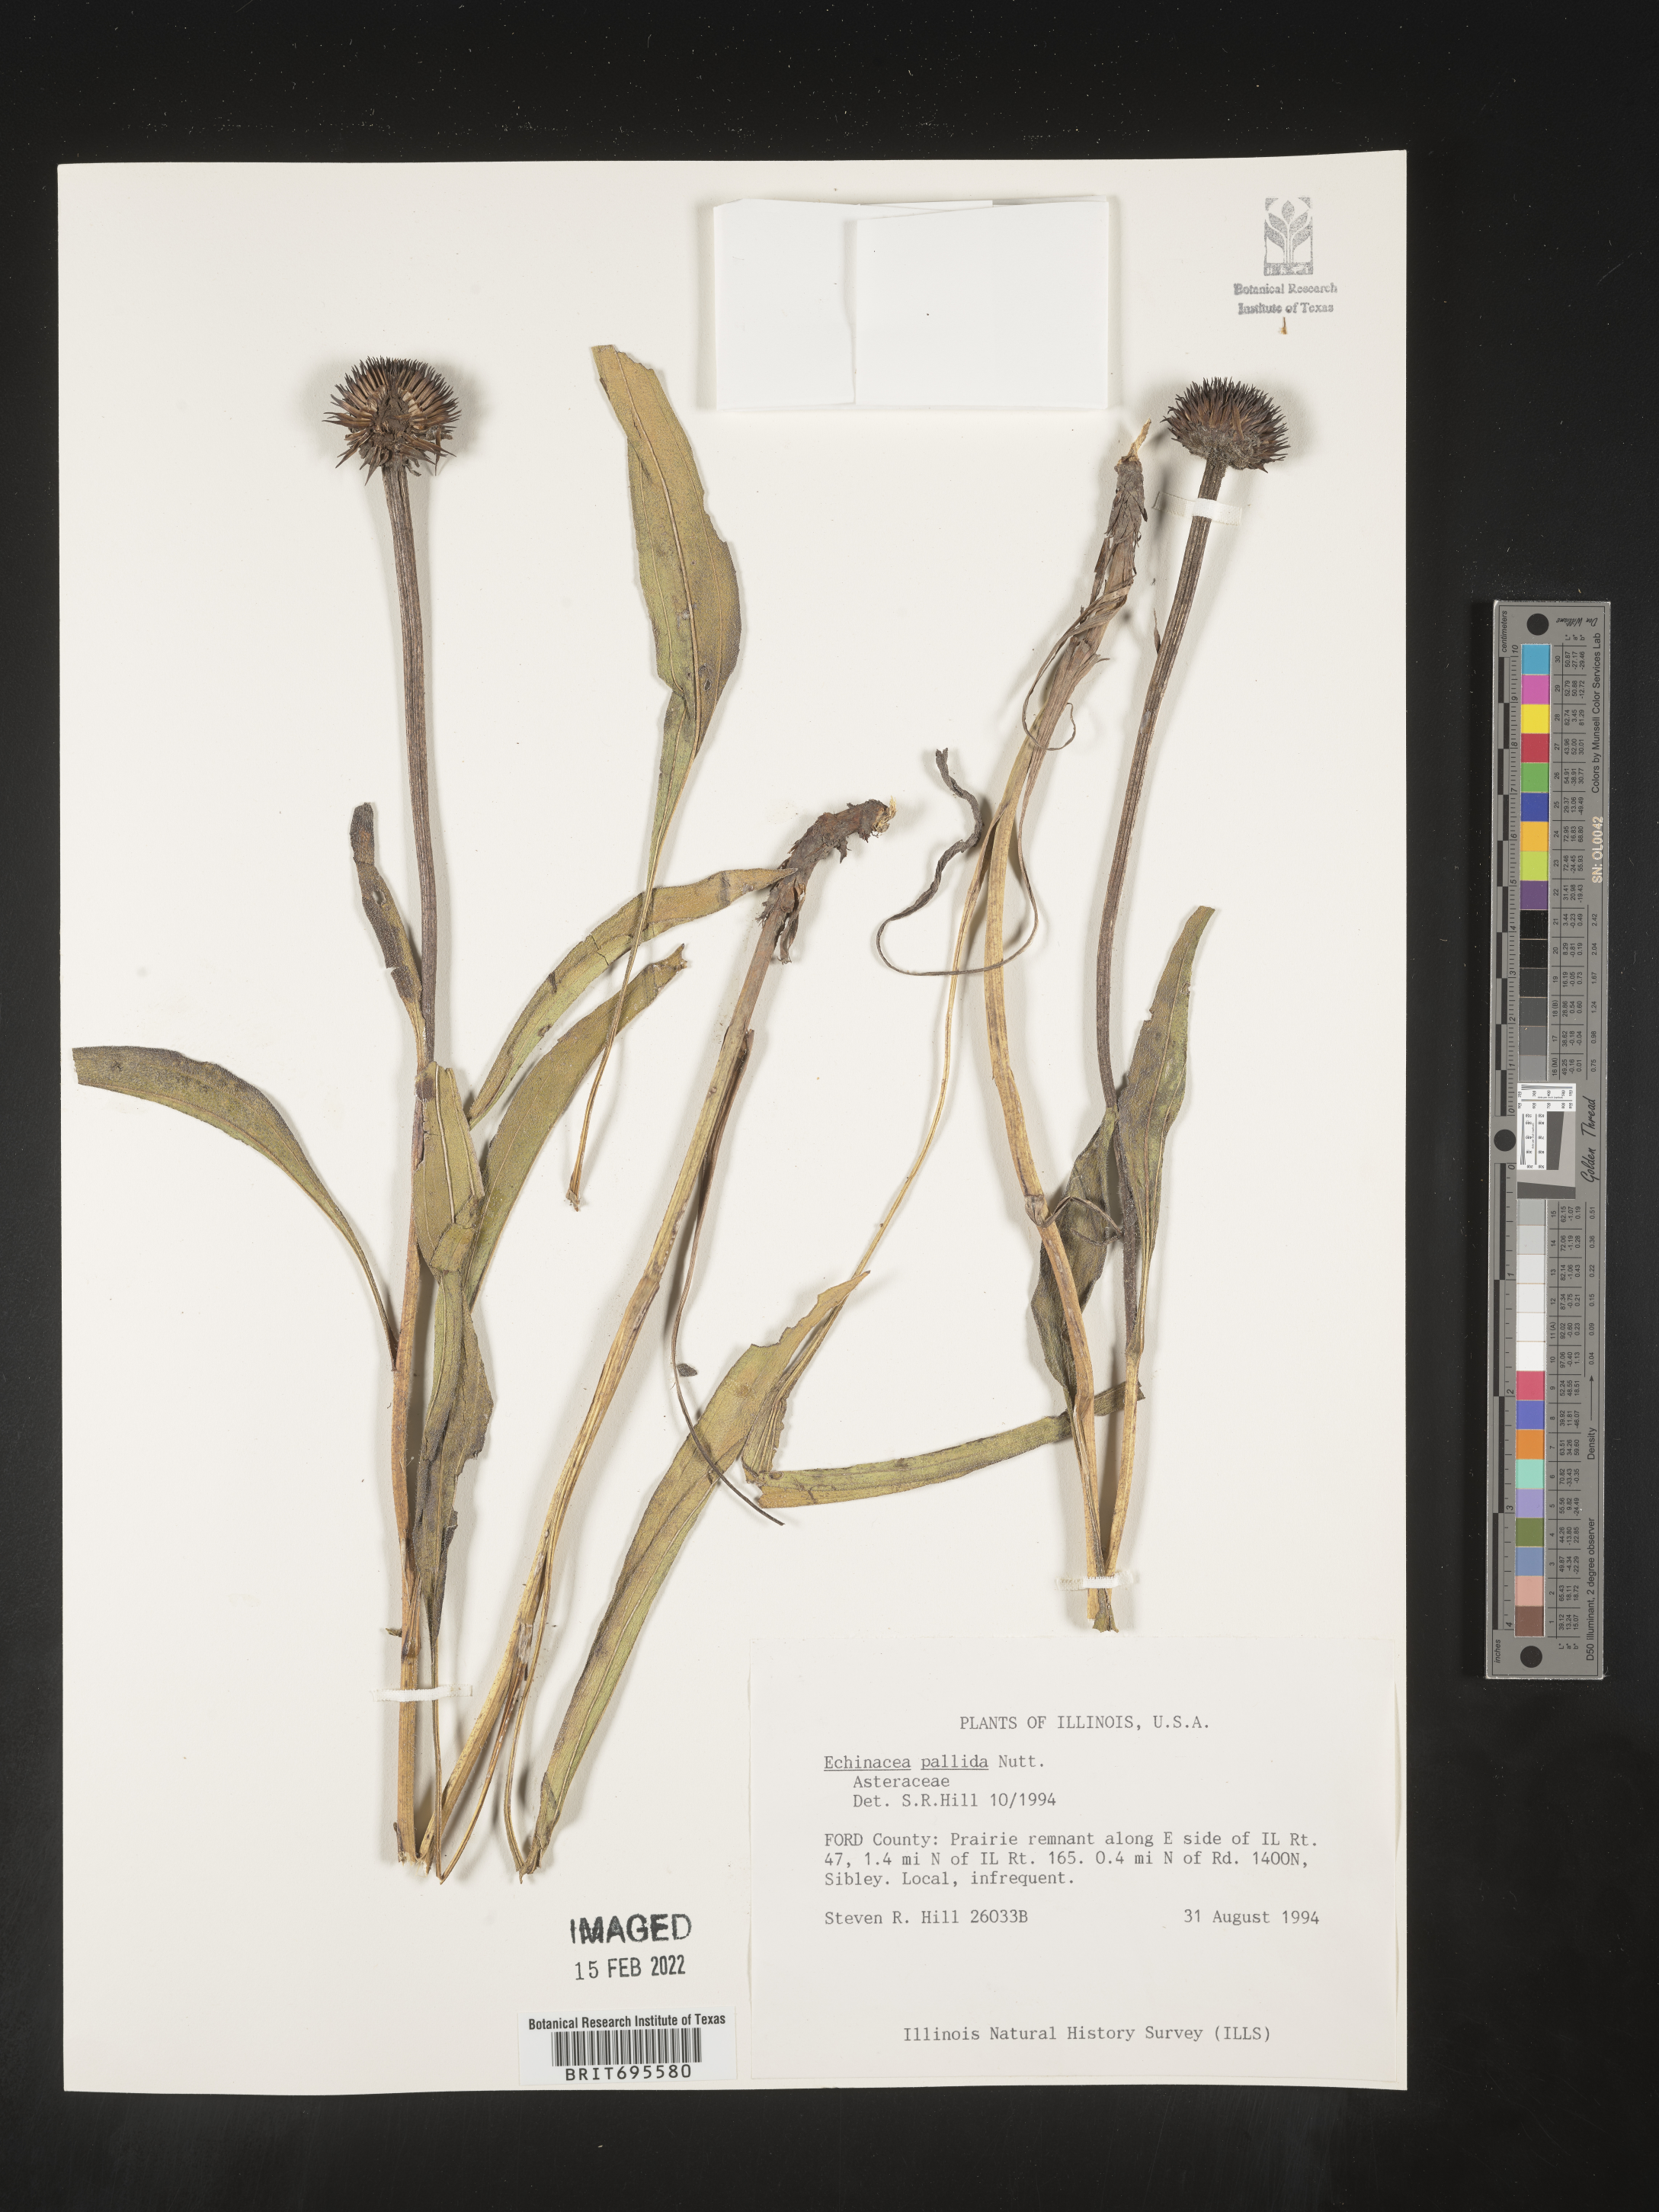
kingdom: Plantae
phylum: Tracheophyta
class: Magnoliopsida
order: Asterales
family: Asteraceae
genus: Echinacea
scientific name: Echinacea pallida
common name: Pale echinacea
